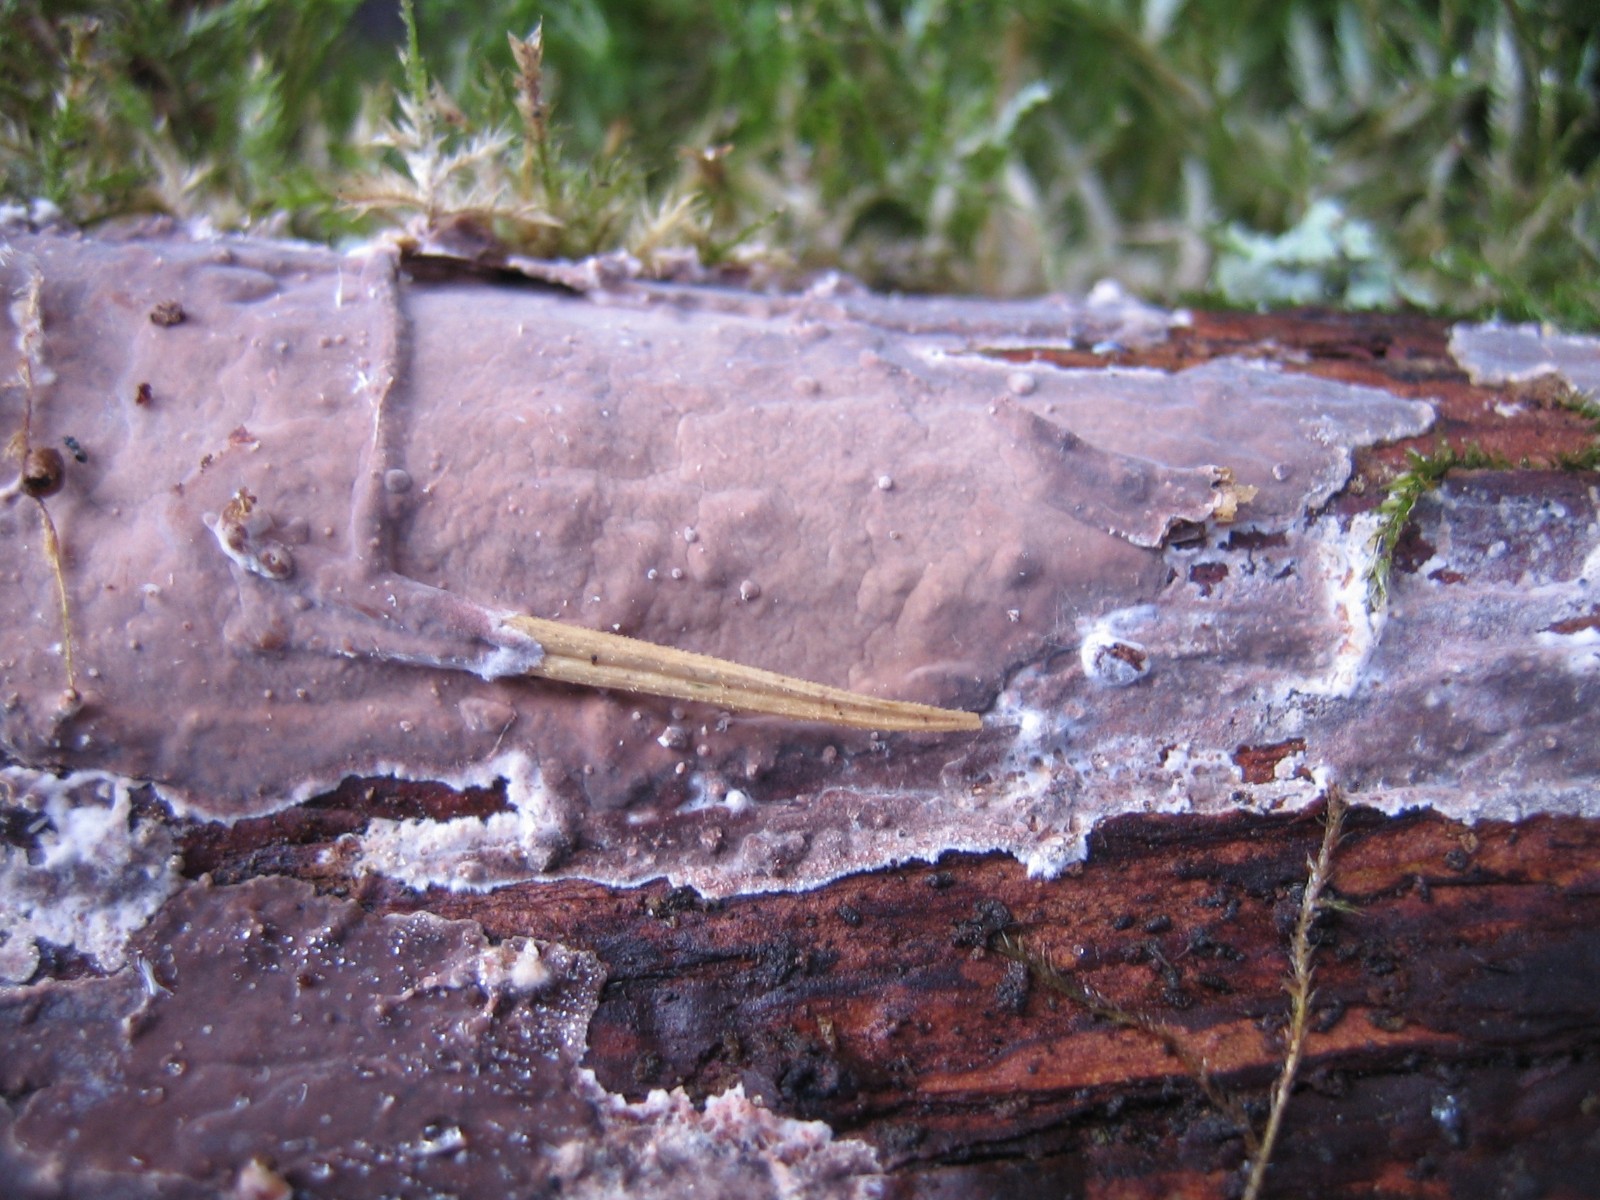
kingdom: Fungi
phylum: Basidiomycota
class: Agaricomycetes
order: Russulales
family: Peniophoraceae
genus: Peniophora
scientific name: Peniophora quercina
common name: ege-voksskind
